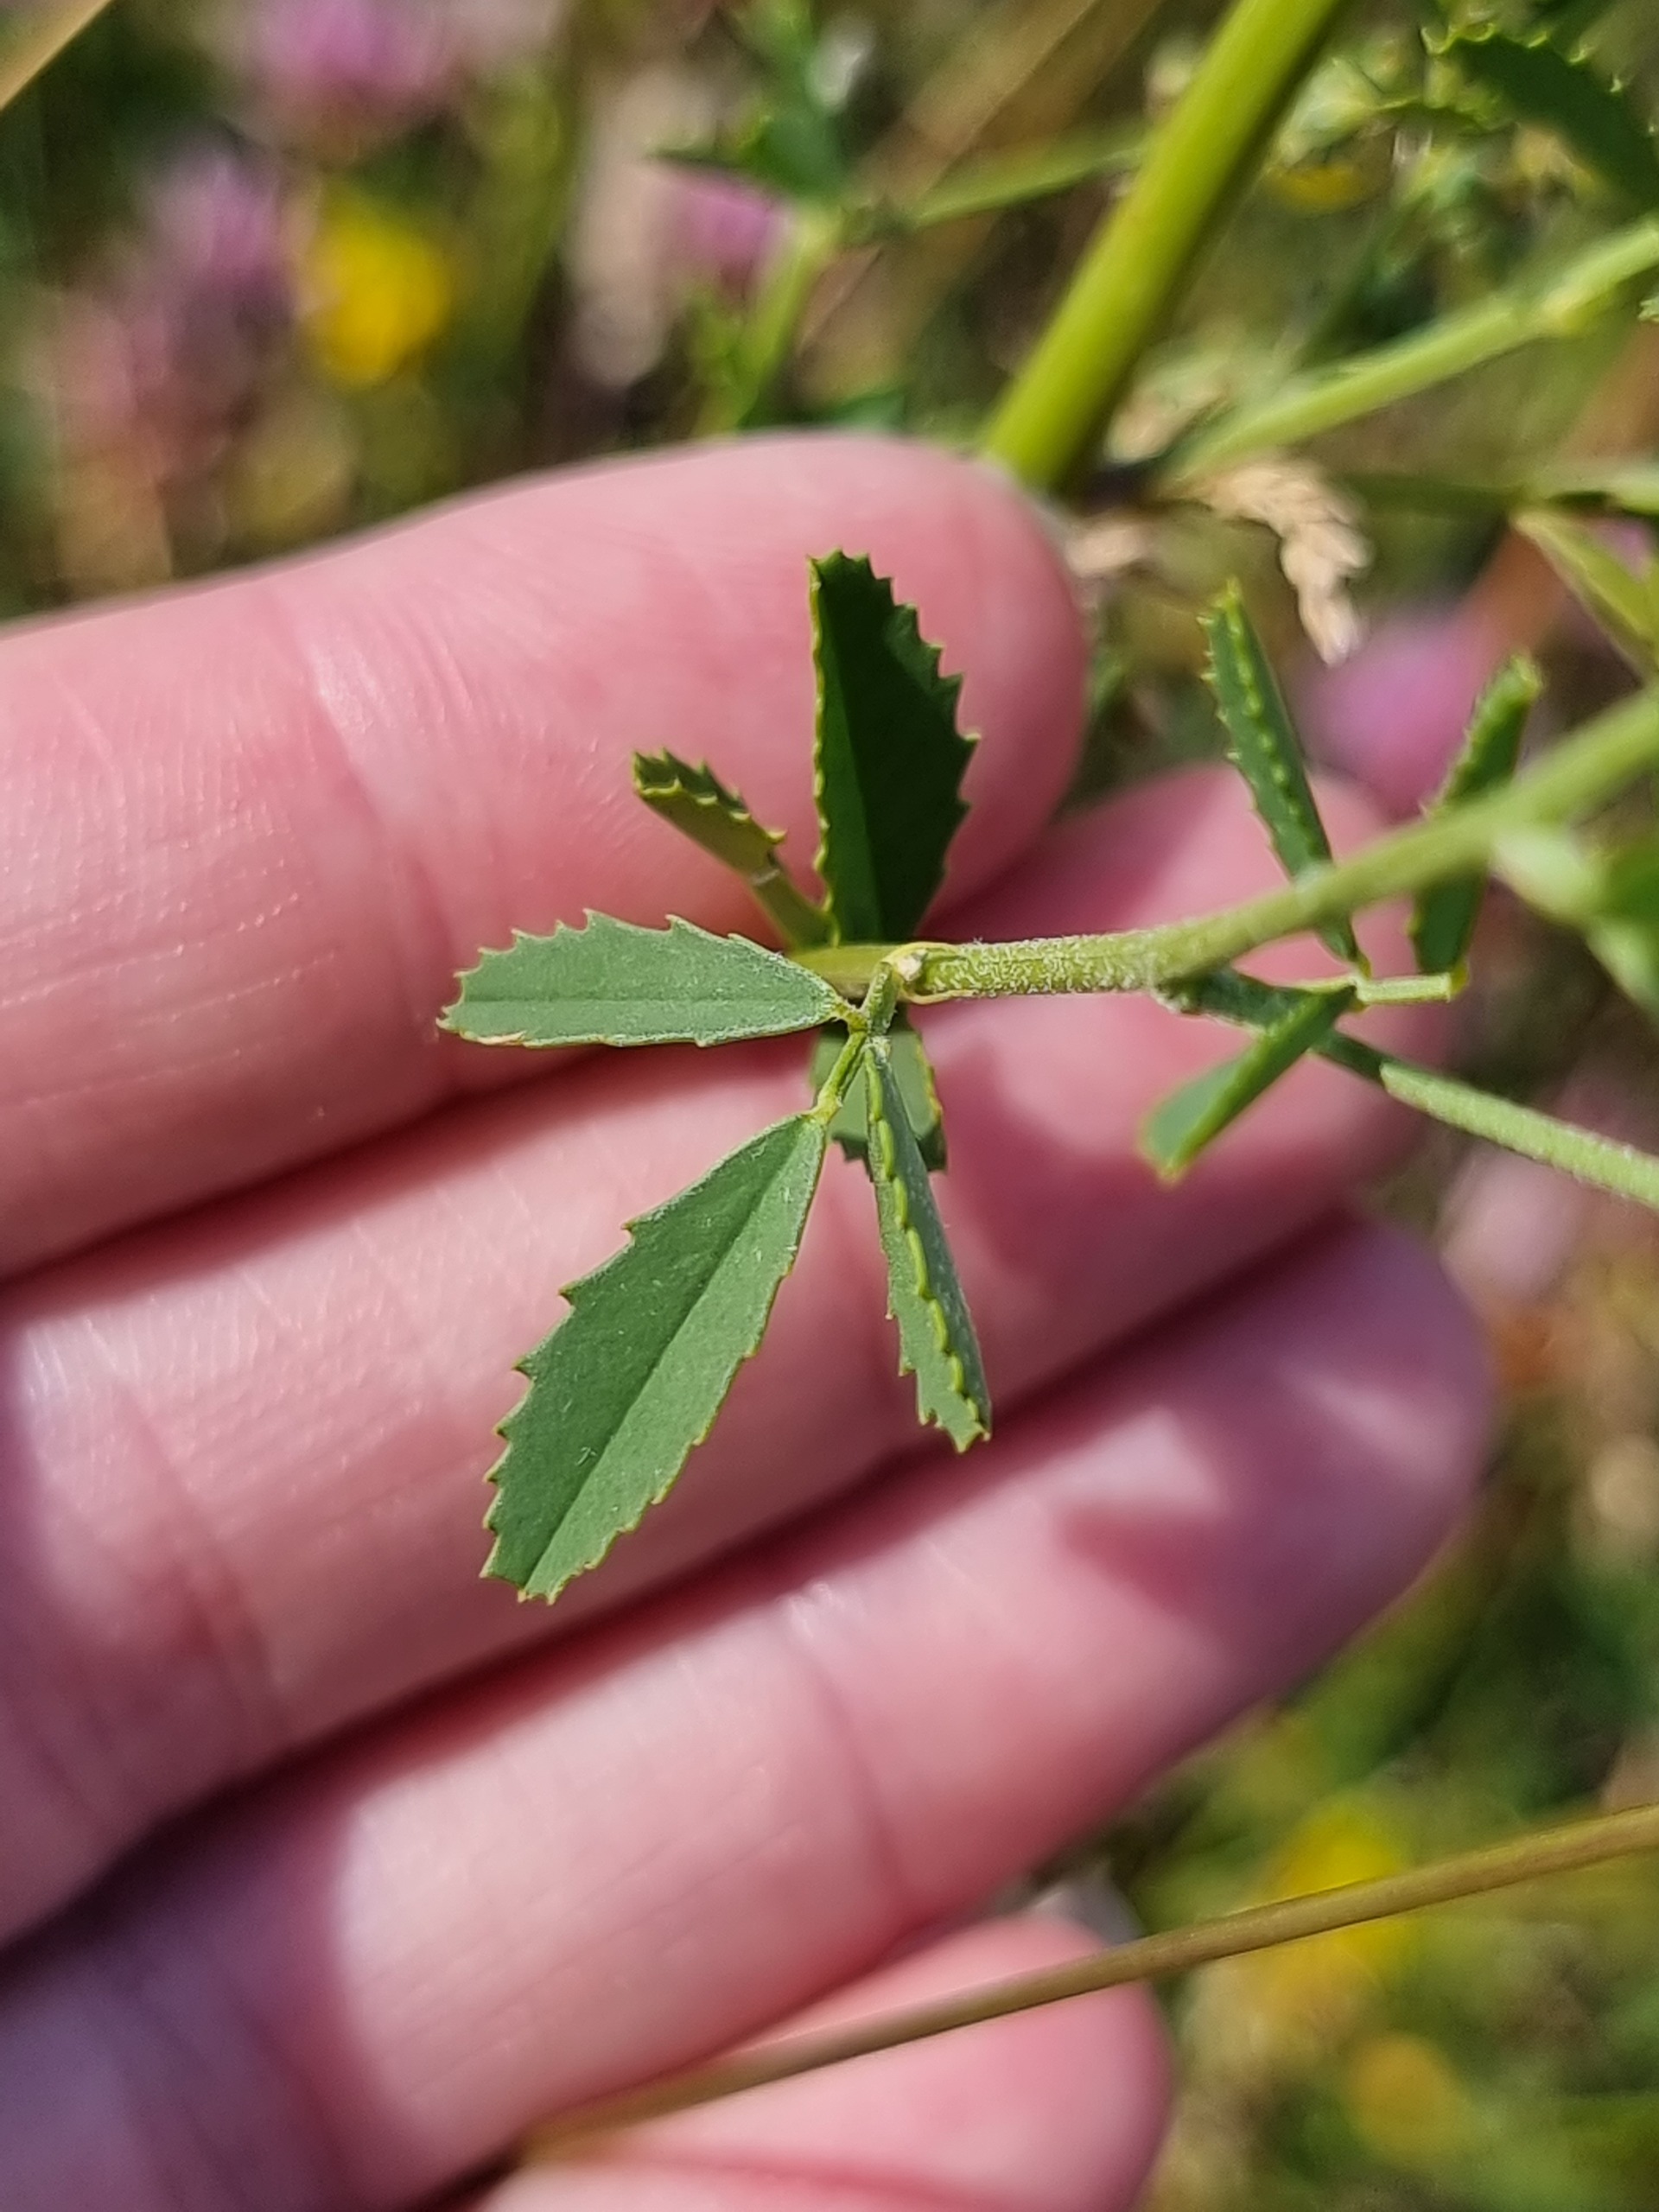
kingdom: Plantae
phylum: Tracheophyta
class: Magnoliopsida
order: Fabales
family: Fabaceae
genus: Melilotus
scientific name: Melilotus albus
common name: Hvid stenkløver
